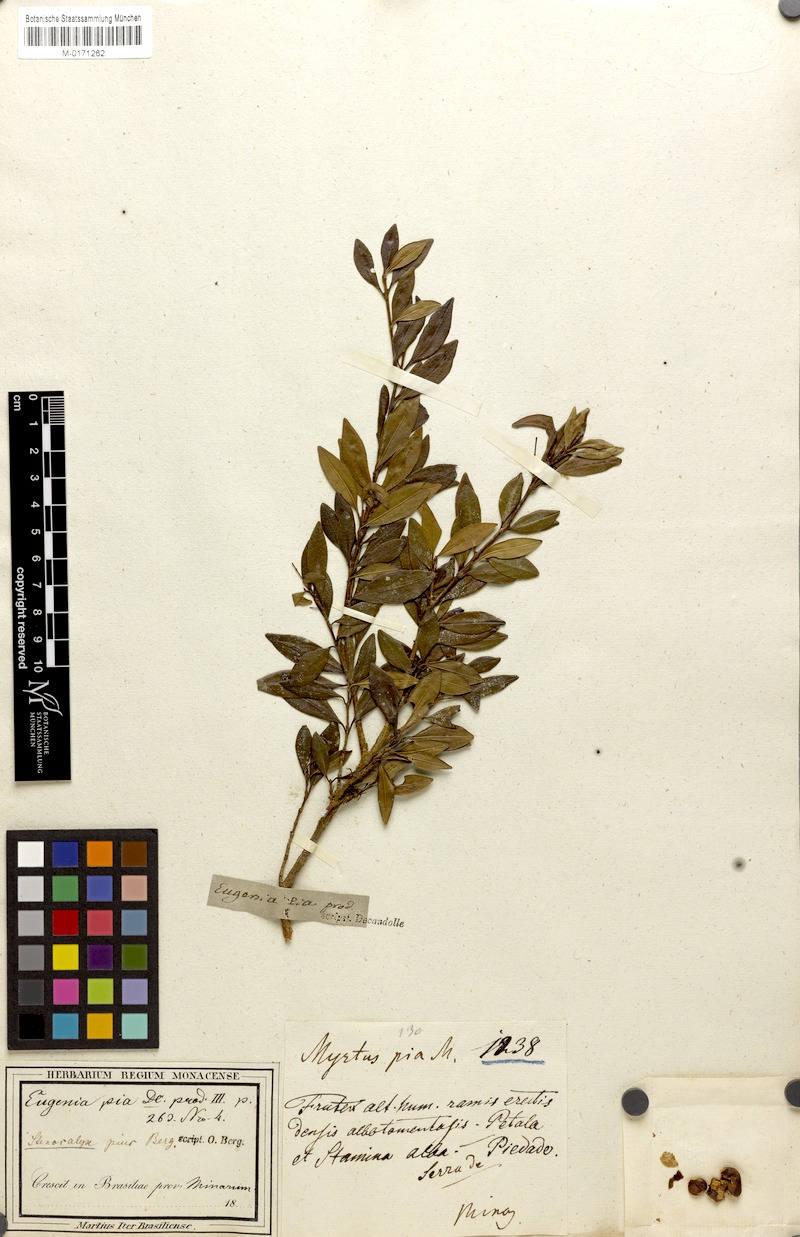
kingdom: Plantae
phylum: Tracheophyta
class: Magnoliopsida
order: Myrtales
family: Myrtaceae
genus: Eugenia
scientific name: Eugenia pia
